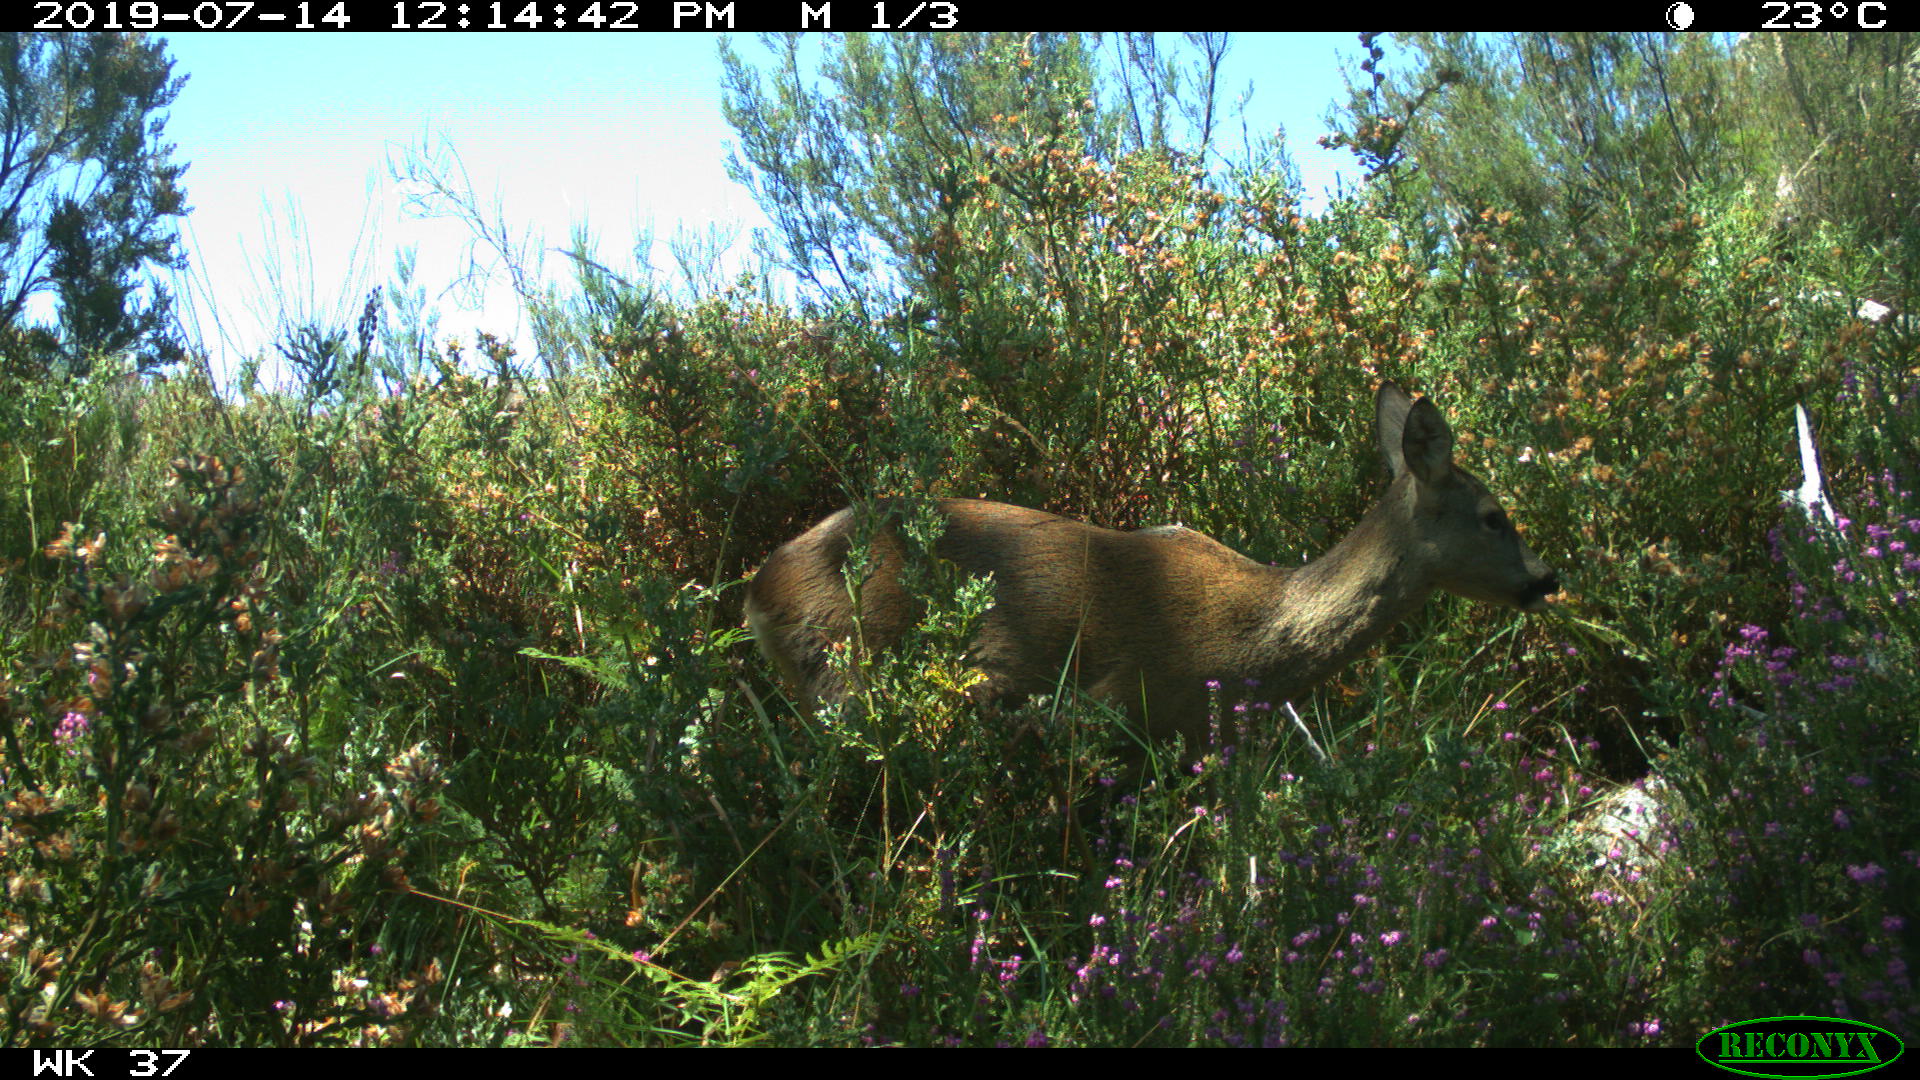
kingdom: Animalia
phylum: Chordata
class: Mammalia
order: Artiodactyla
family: Cervidae
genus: Capreolus
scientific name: Capreolus capreolus
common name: Western roe deer
